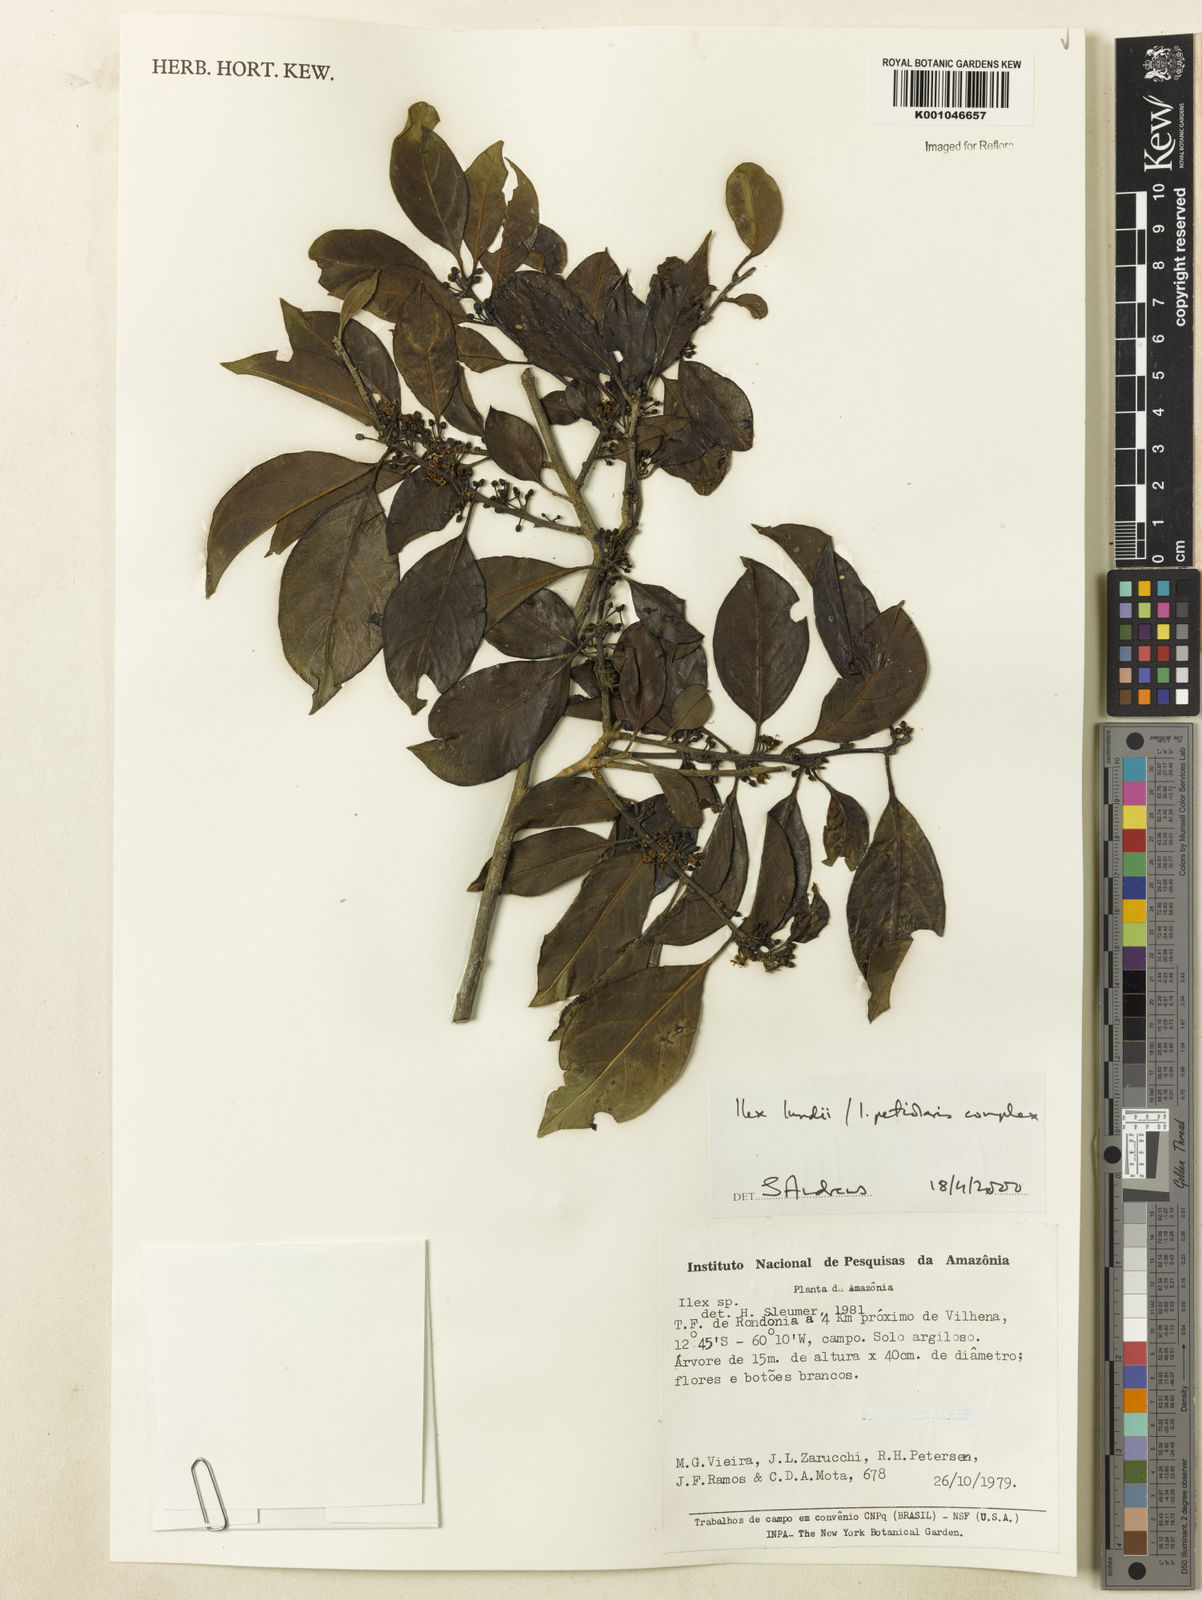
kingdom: Plantae
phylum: Tracheophyta
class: Magnoliopsida
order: Aquifoliales
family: Aquifoliaceae
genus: Ilex
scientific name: Ilex lundii
